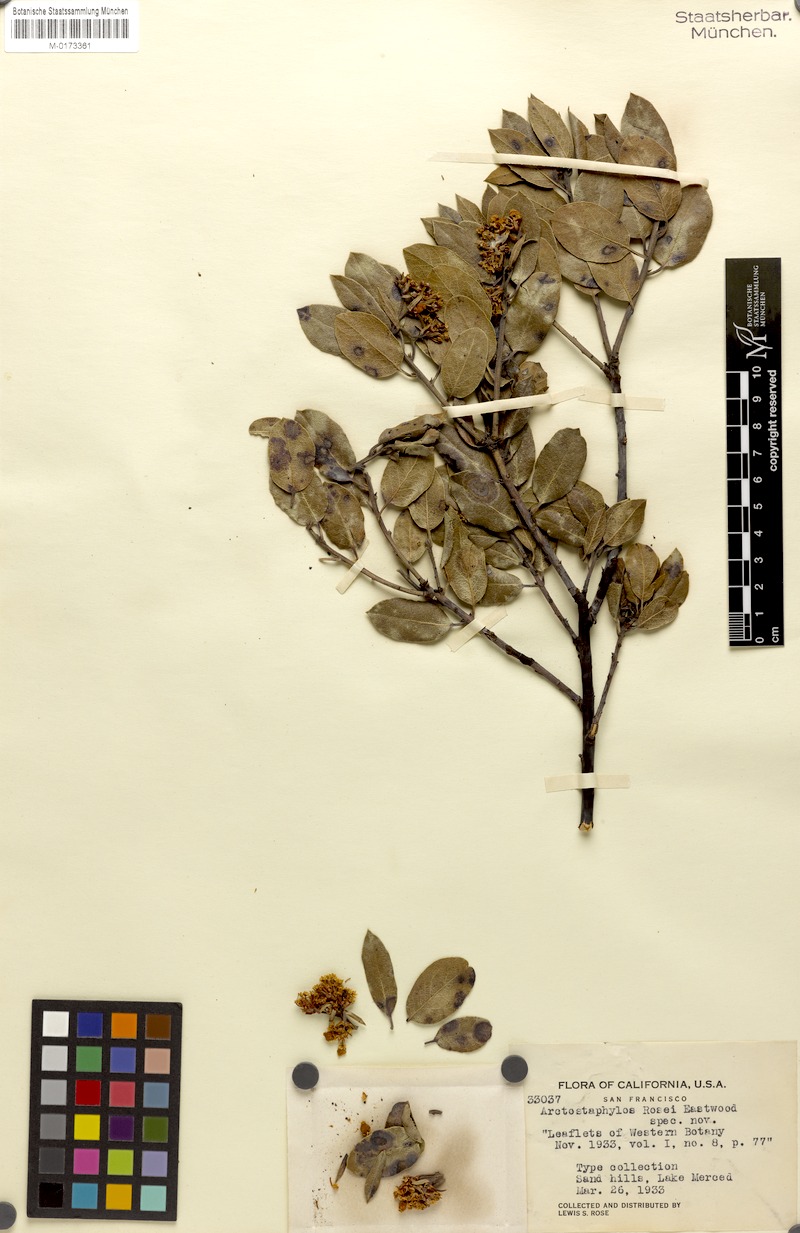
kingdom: Plantae
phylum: Tracheophyta
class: Magnoliopsida
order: Ericales
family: Ericaceae
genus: Arctostaphylos
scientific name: Arctostaphylos crustacea
